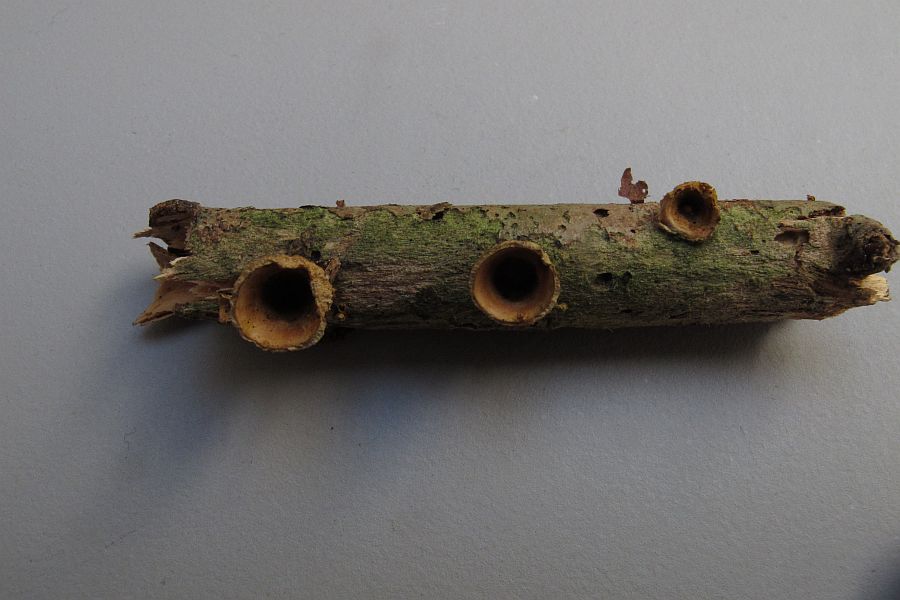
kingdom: Fungi
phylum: Basidiomycota
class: Agaricomycetes
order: Agaricales
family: Nidulariaceae
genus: Crucibulum
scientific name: Crucibulum crucibuliforme
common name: krukkesvamp
